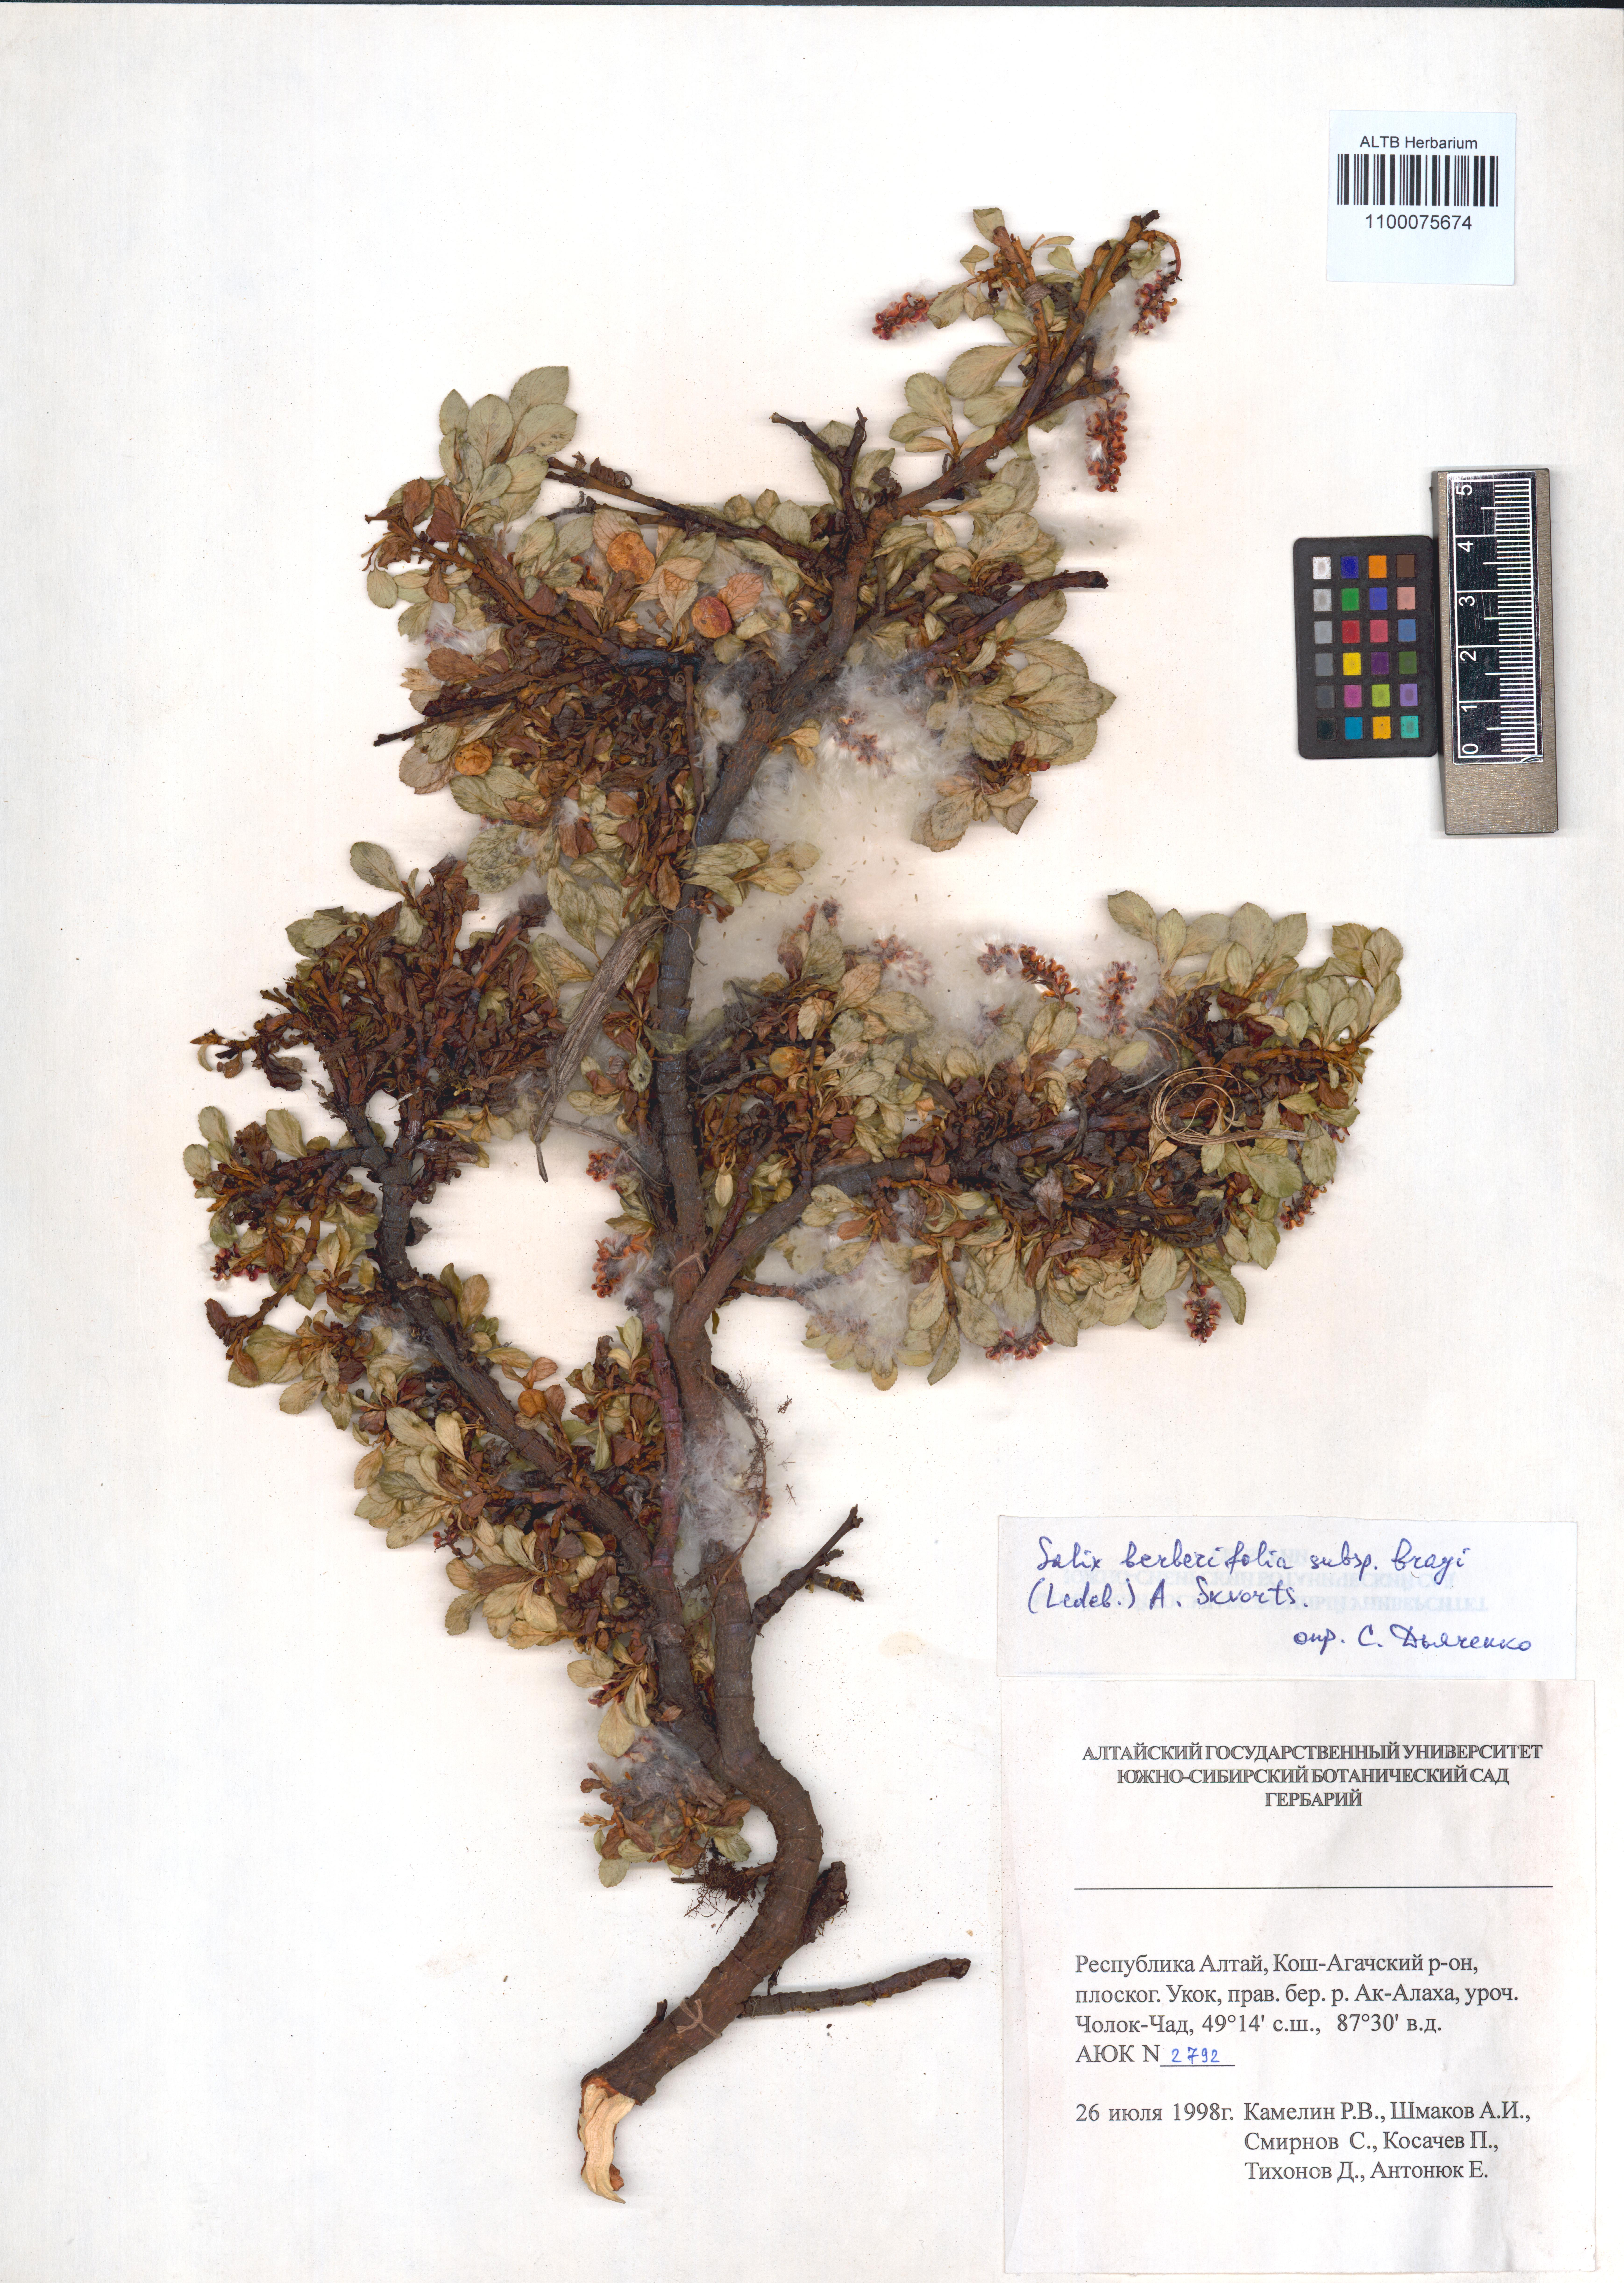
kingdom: Plantae
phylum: Tracheophyta
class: Magnoliopsida
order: Malpighiales
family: Salicaceae
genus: Salix
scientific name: Salix berberifolia
